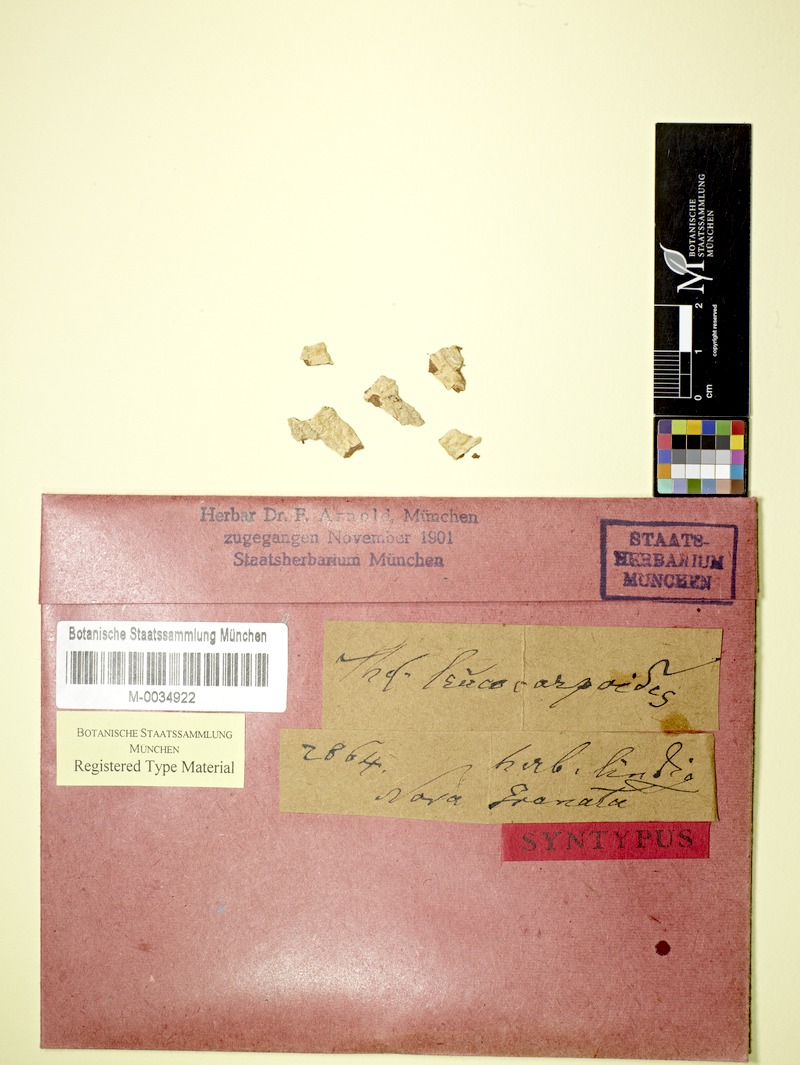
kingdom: Fungi
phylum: Ascomycota
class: Lecanoromycetes
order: Ostropales
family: Graphidaceae
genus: Ocellularia
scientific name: Ocellularia leucocarpoides
